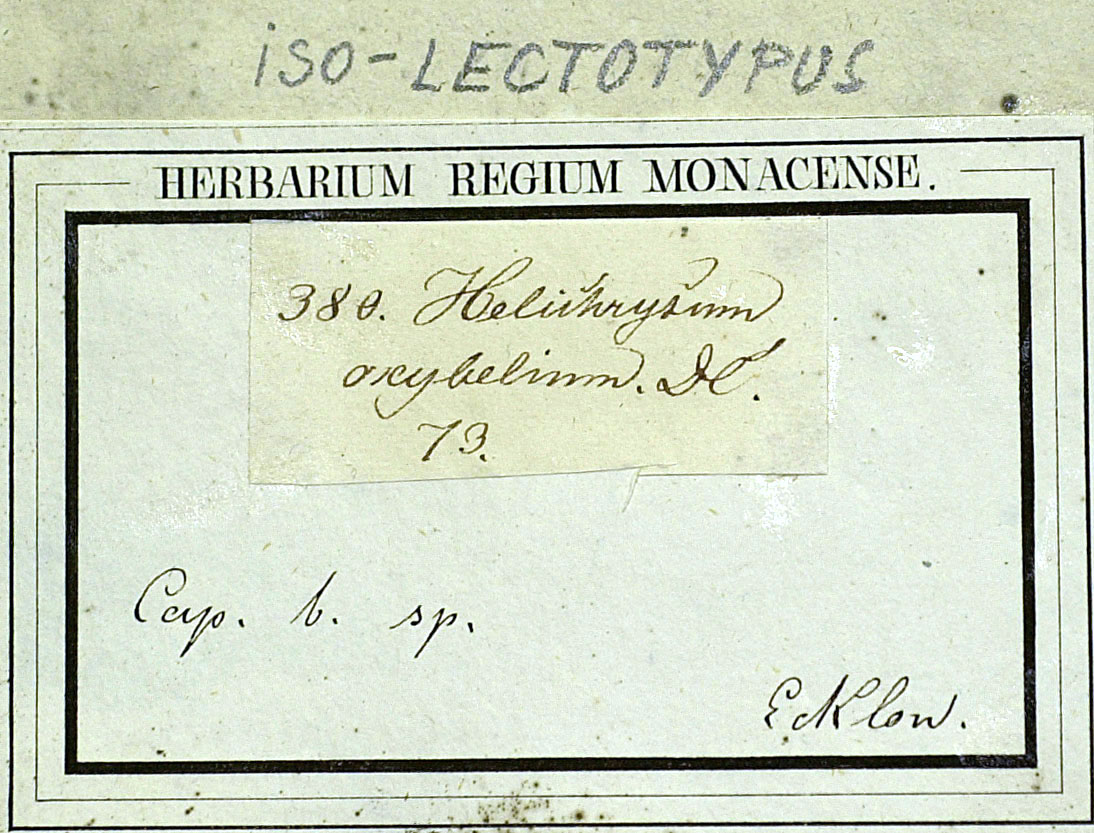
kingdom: Plantae
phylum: Tracheophyta
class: Magnoliopsida
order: Asterales
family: Asteraceae
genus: Helichrysum
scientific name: Helichrysum oxybelium
